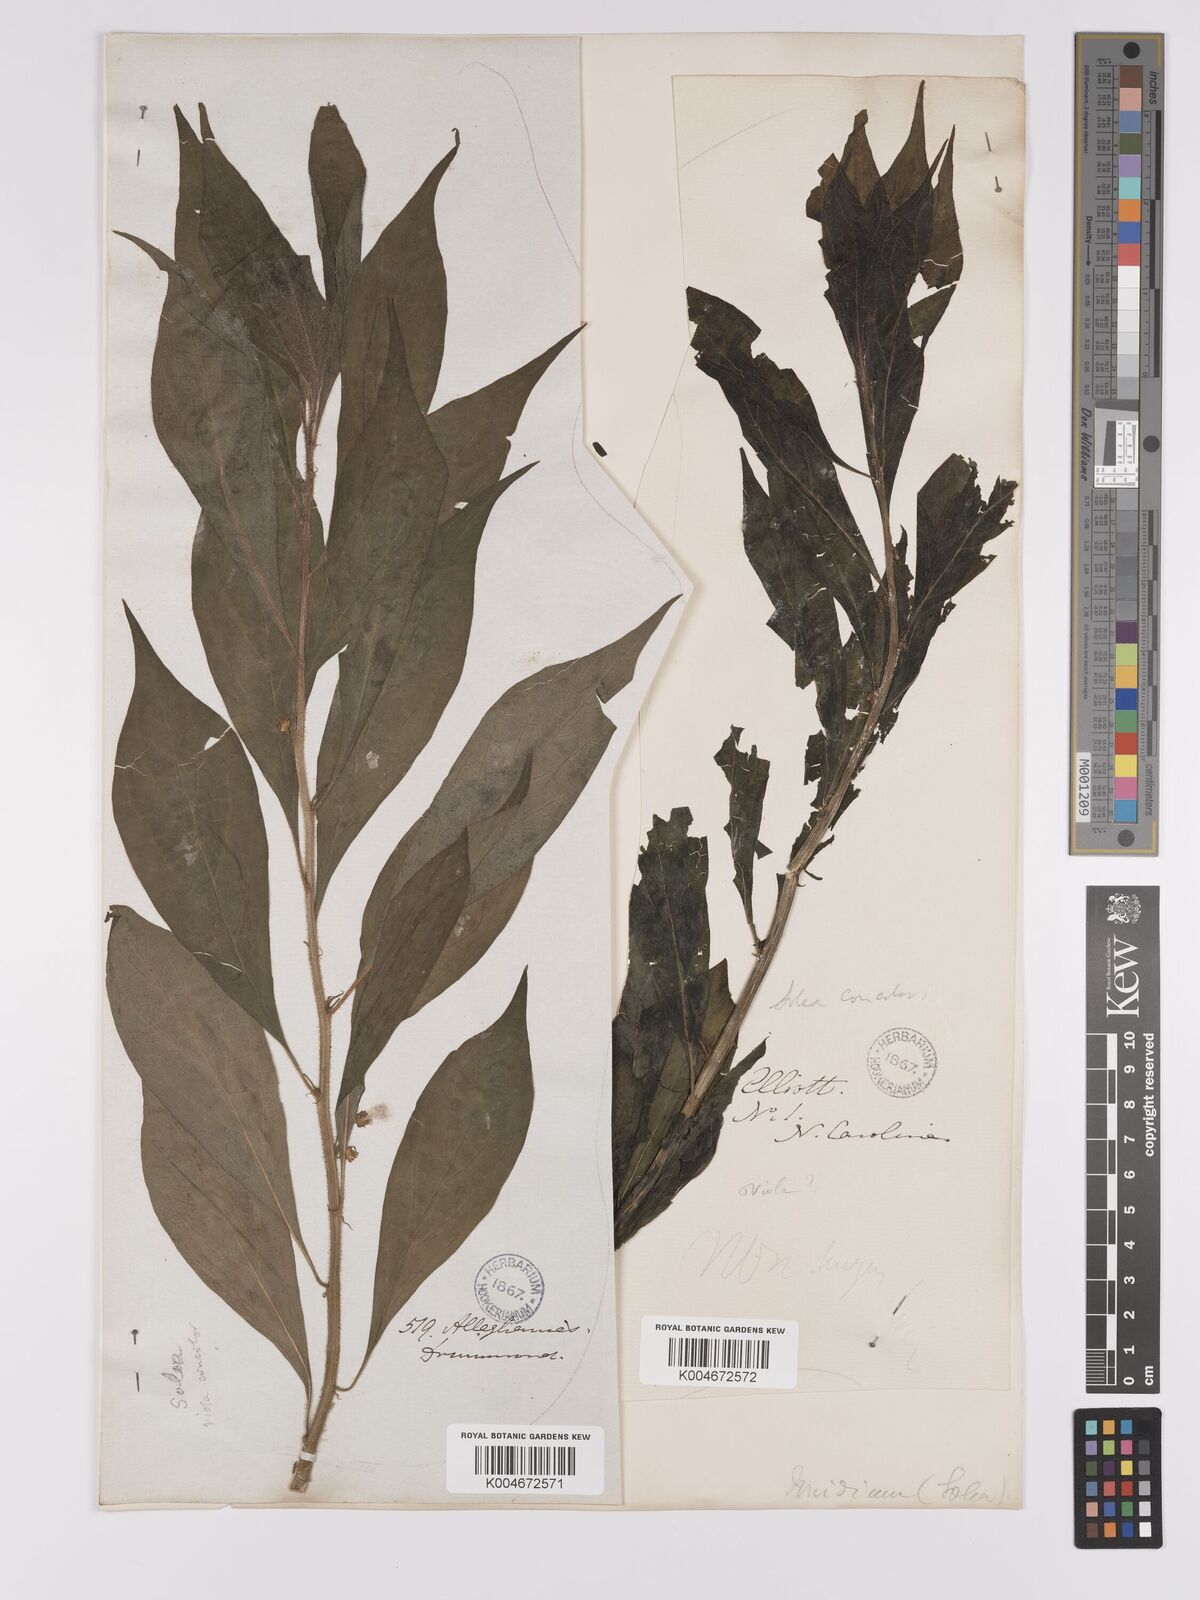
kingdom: Plantae
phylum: Tracheophyta
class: Magnoliopsida
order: Malpighiales
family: Violaceae
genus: Viola
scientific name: Viola concolor
